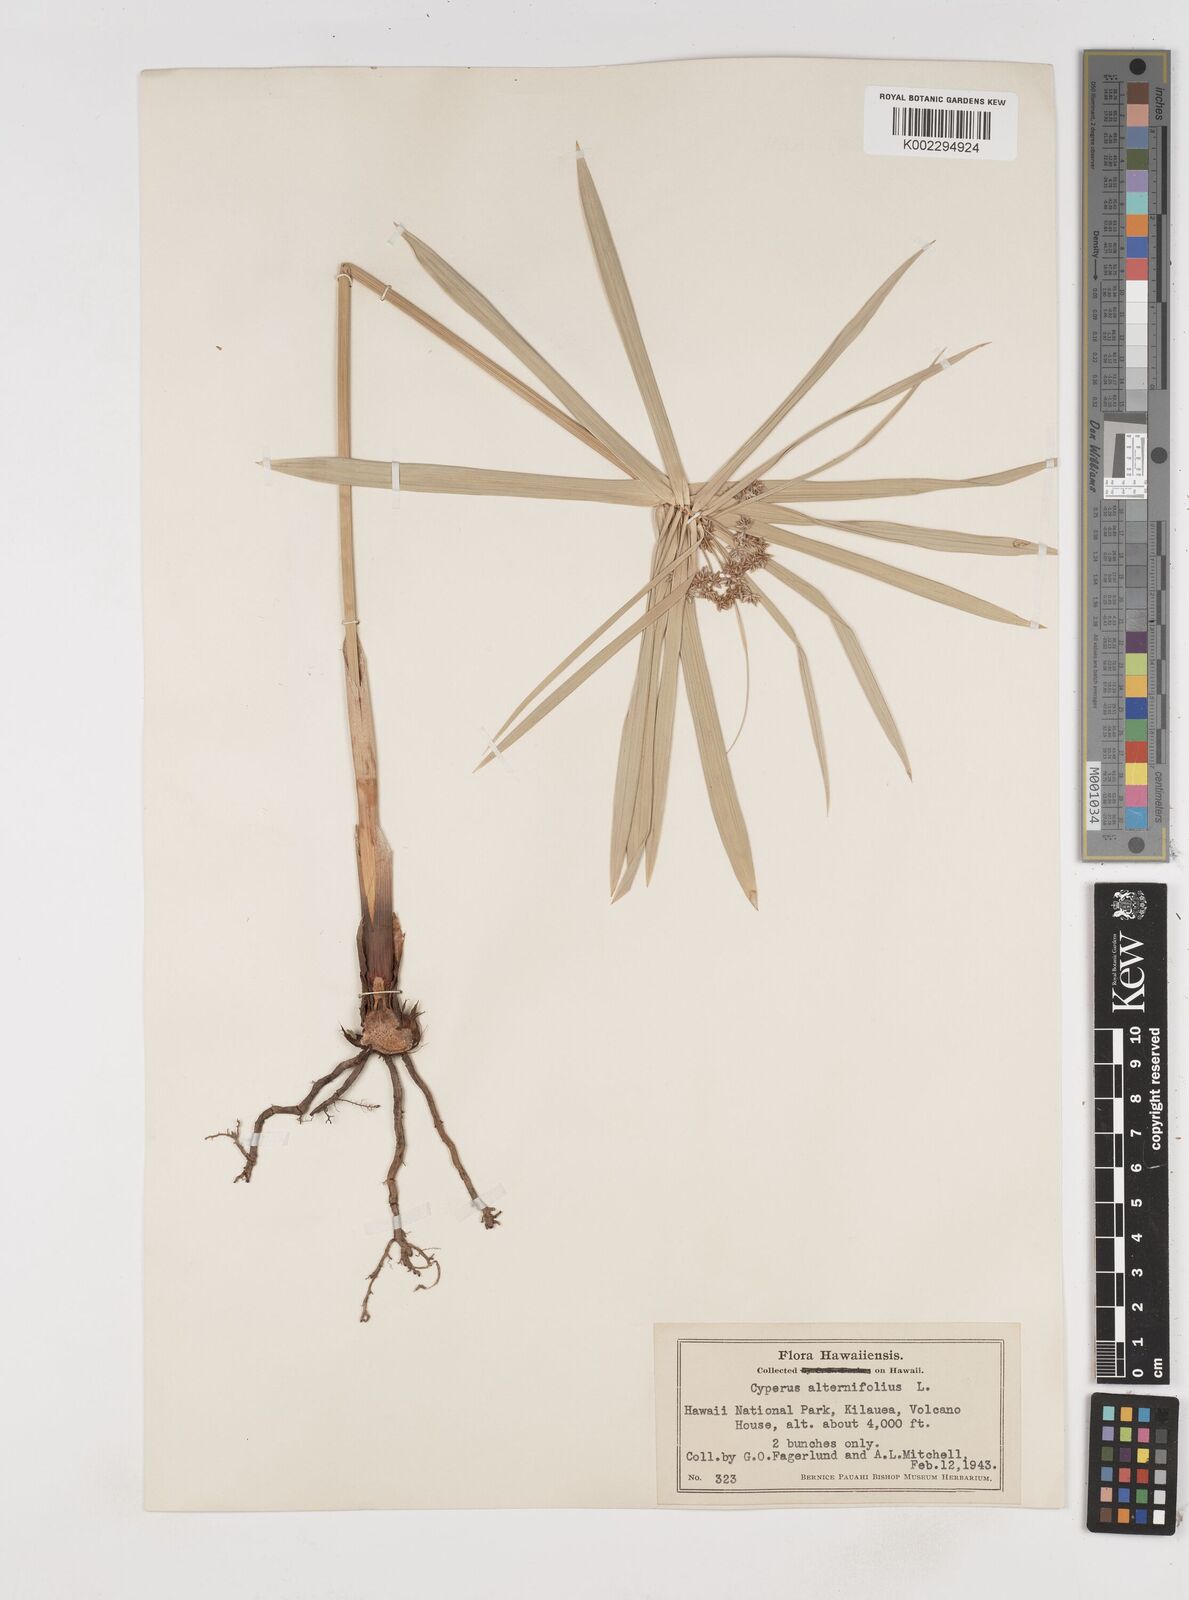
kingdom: Plantae
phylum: Tracheophyta
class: Liliopsida
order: Poales
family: Cyperaceae
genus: Cyperus
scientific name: Cyperus alternifolius
